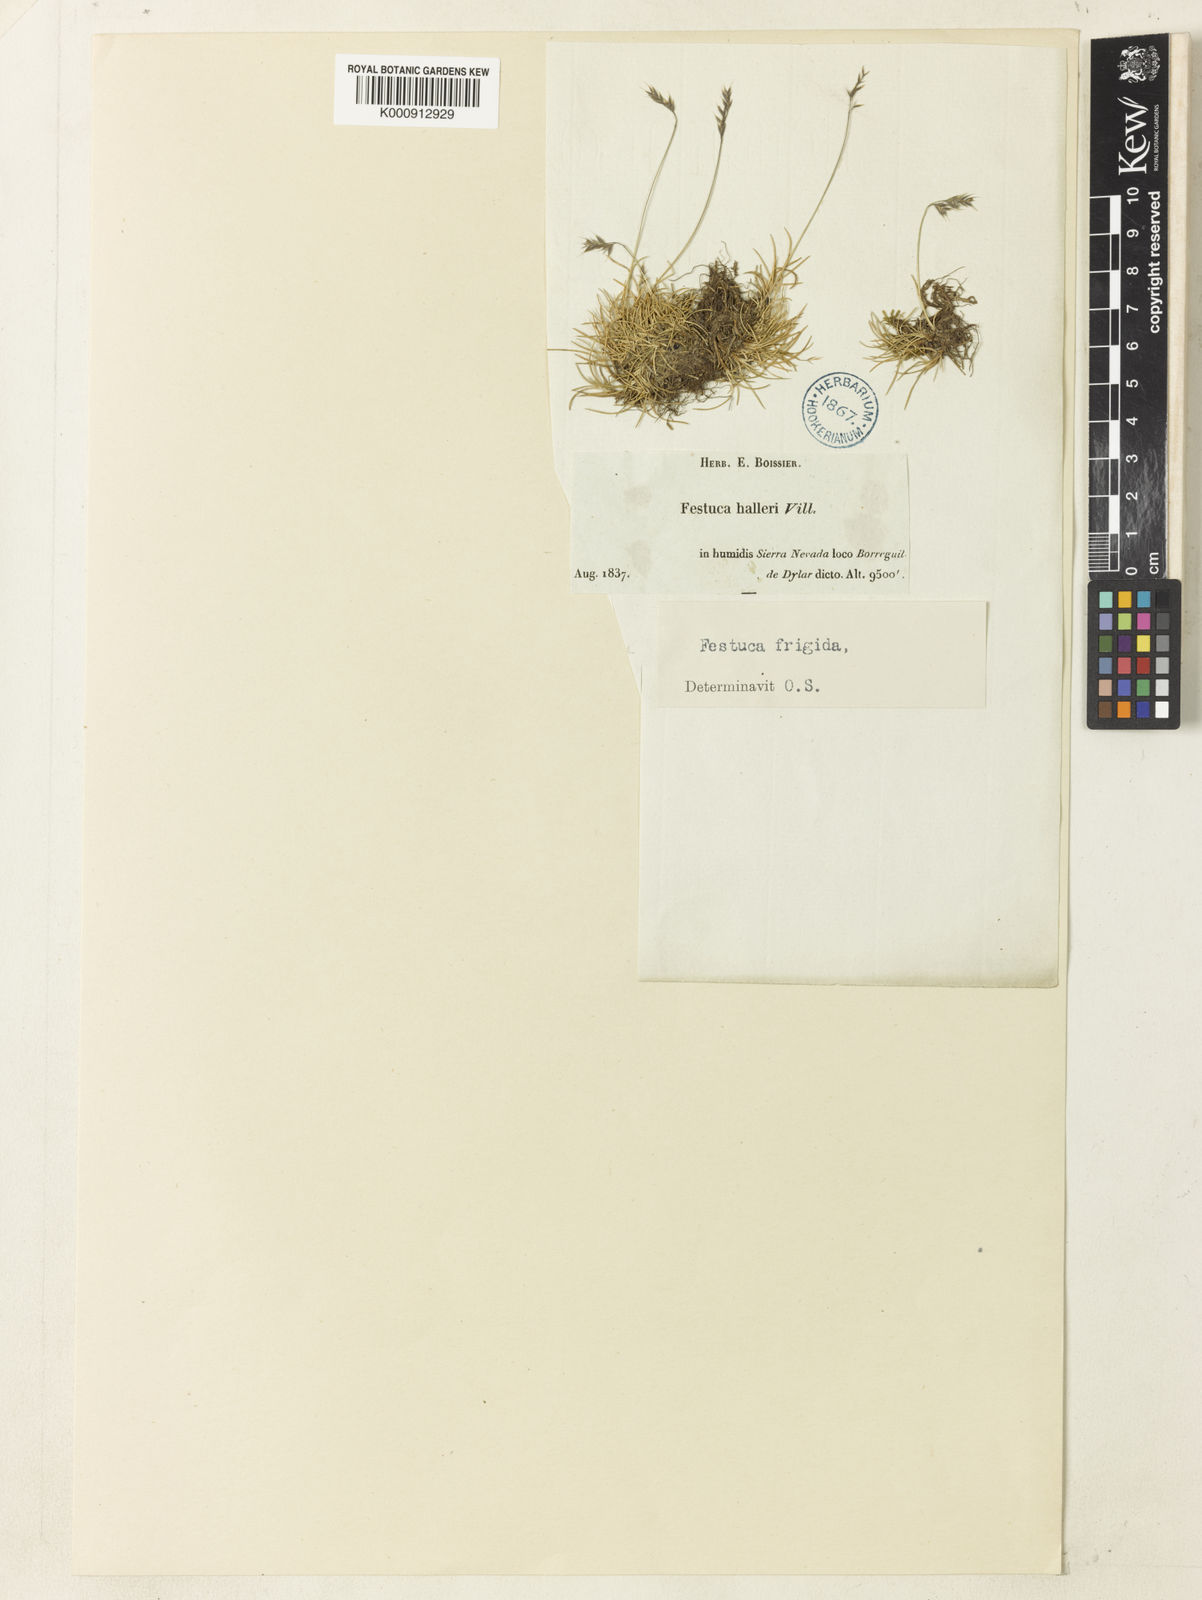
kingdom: Plantae
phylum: Tracheophyta
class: Liliopsida
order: Poales
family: Poaceae
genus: Festuca
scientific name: Festuca frigida
